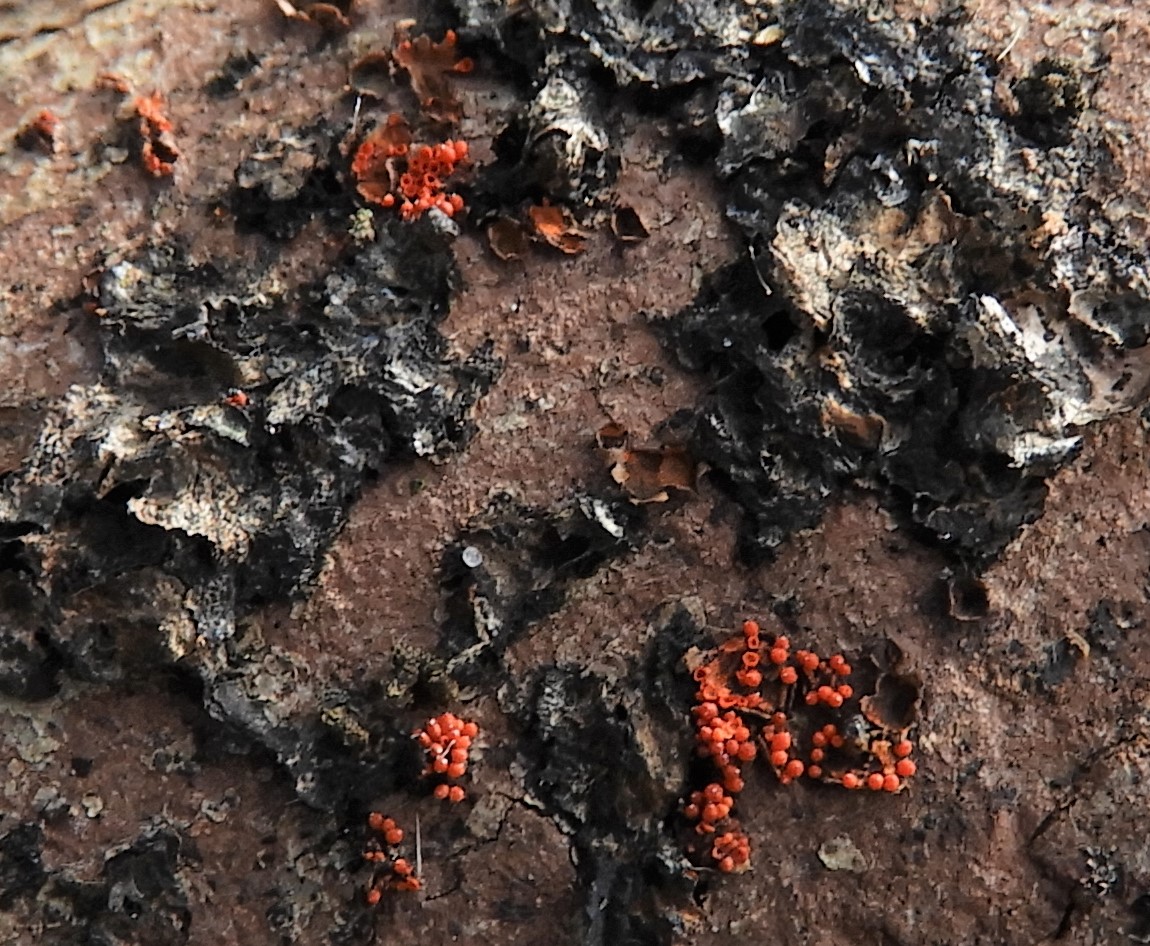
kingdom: Fungi
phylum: Ascomycota
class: Sordariomycetes
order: Hypocreales
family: Nectriaceae
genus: Neonectria
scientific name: Neonectria coccinea
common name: bøgebark-cinnobersvamp
